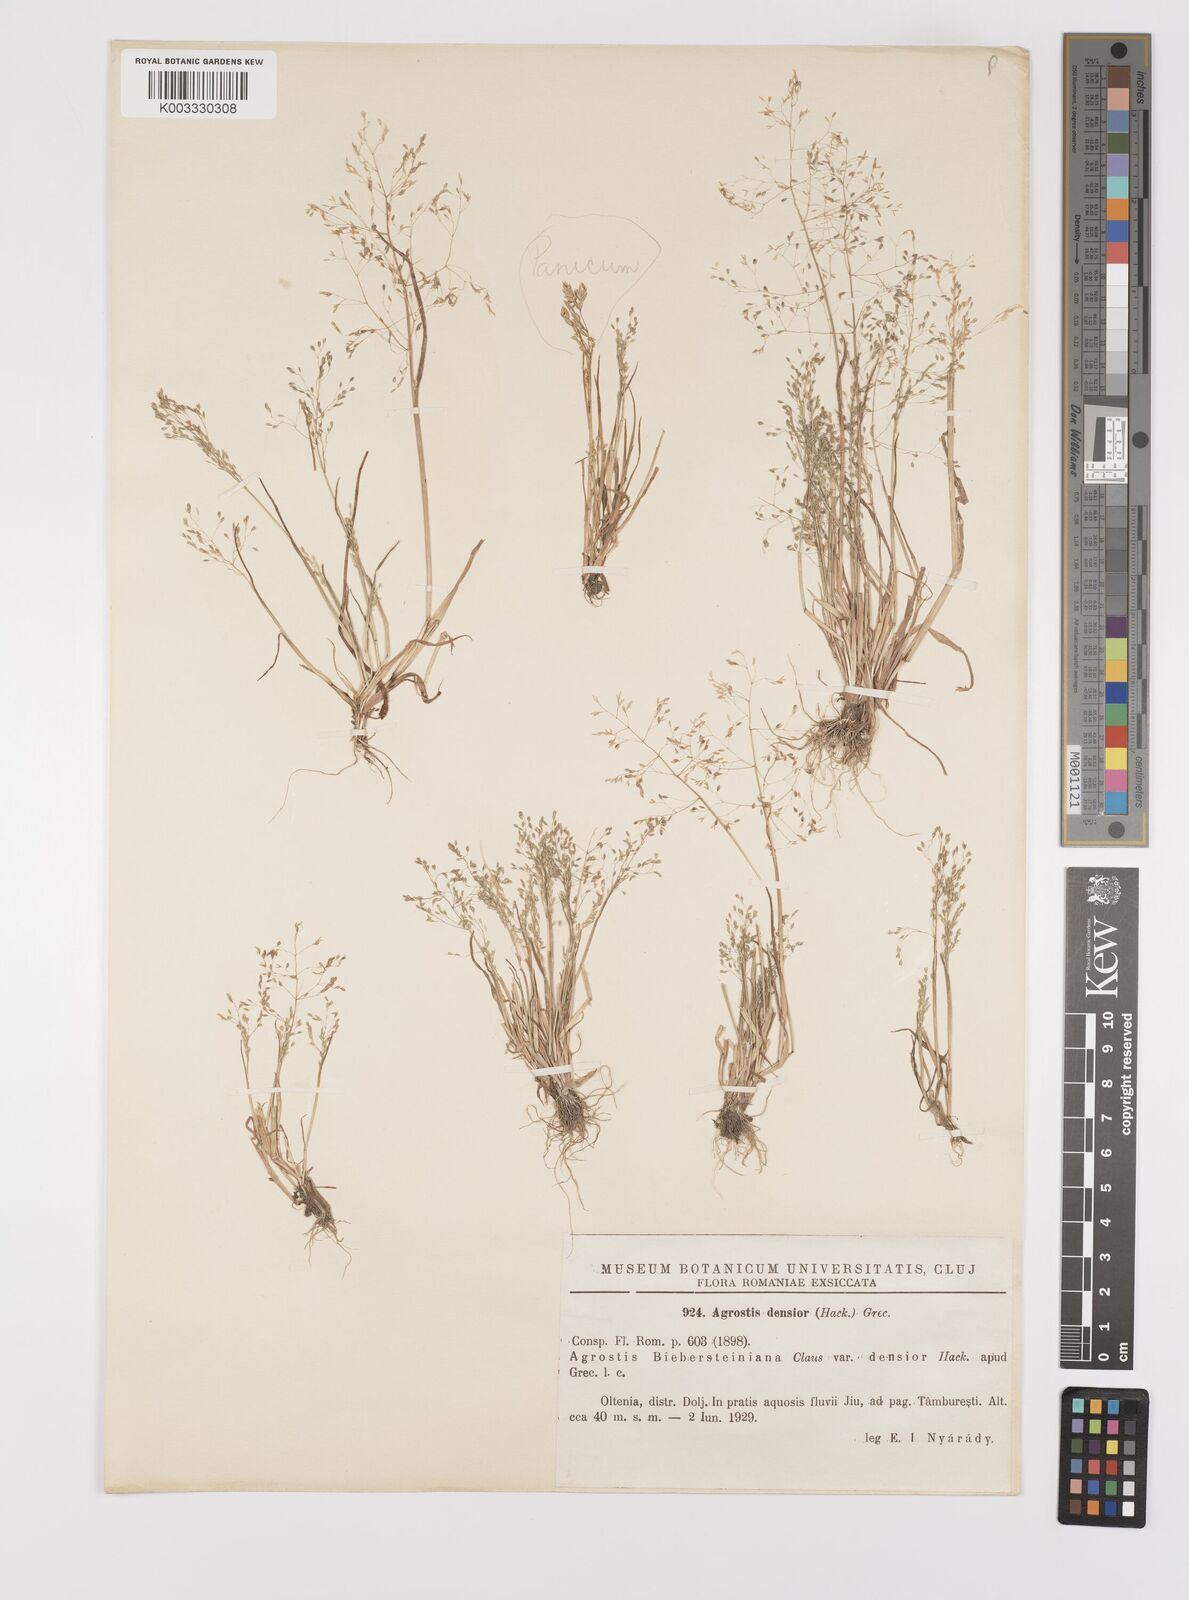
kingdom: Plantae
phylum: Tracheophyta
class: Liliopsida
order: Poales
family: Poaceae
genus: Colpodium
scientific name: Colpodium pisidicum
